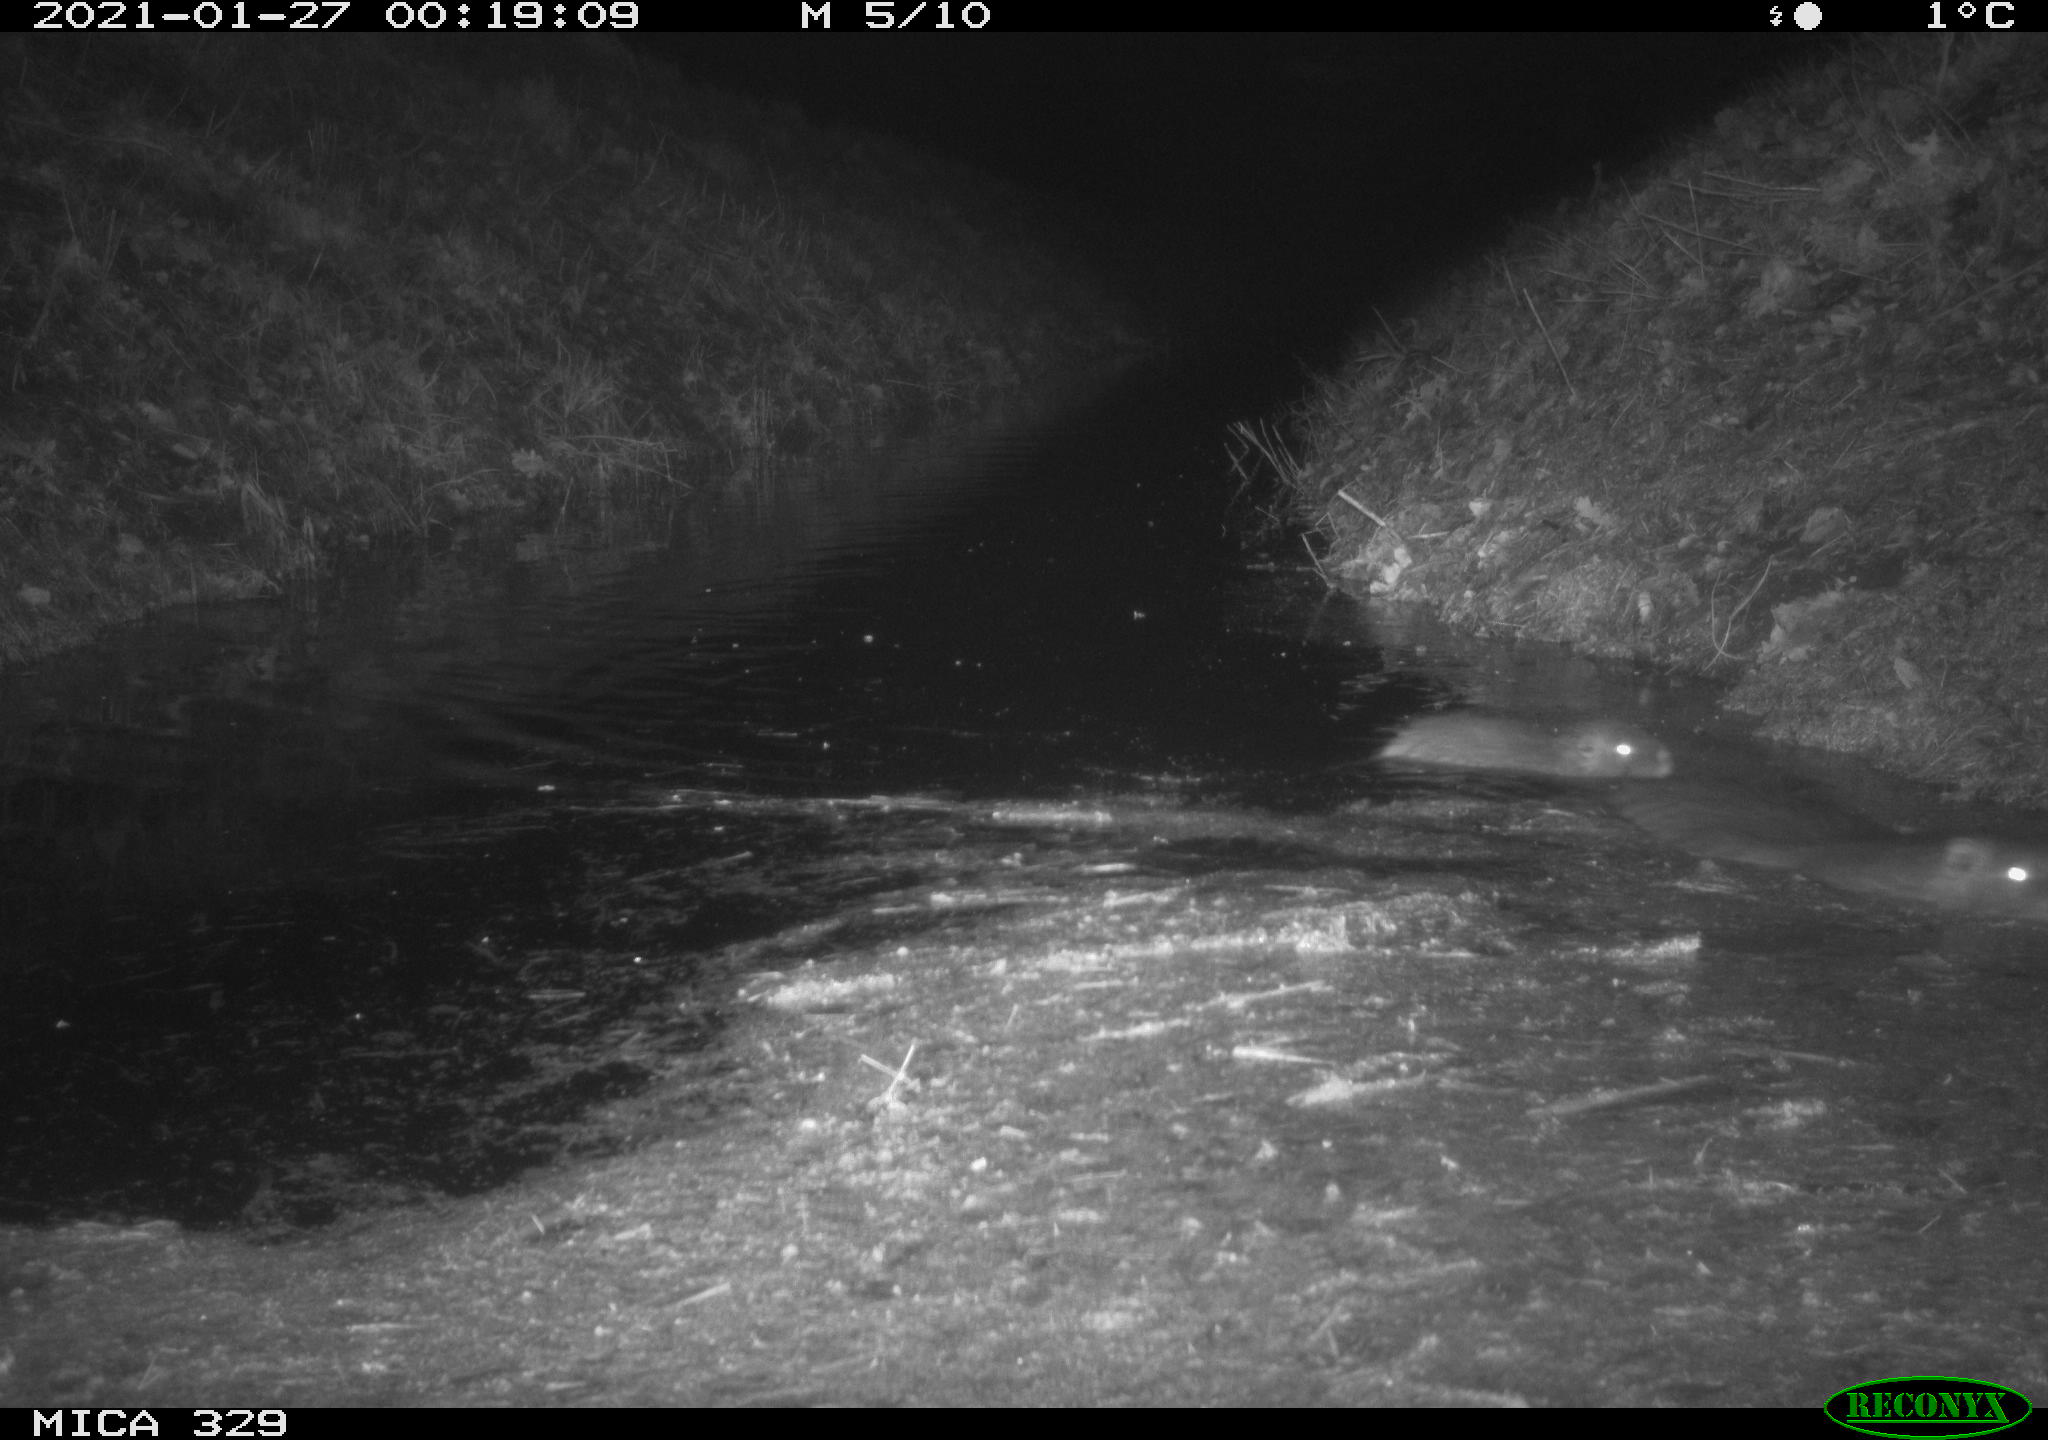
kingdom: Animalia
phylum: Chordata
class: Mammalia
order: Rodentia
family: Myocastoridae
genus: Myocastor
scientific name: Myocastor coypus
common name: Coypu
